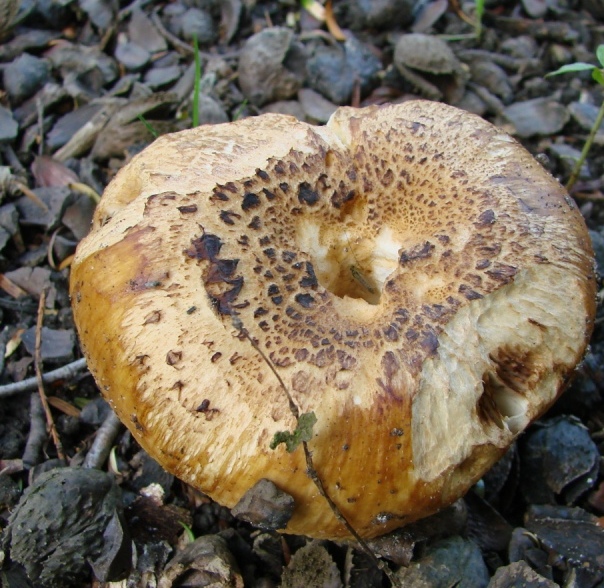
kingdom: Fungi
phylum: Basidiomycota
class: Agaricomycetes
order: Russulales
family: Russulaceae
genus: Russula
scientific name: Russula foetens
